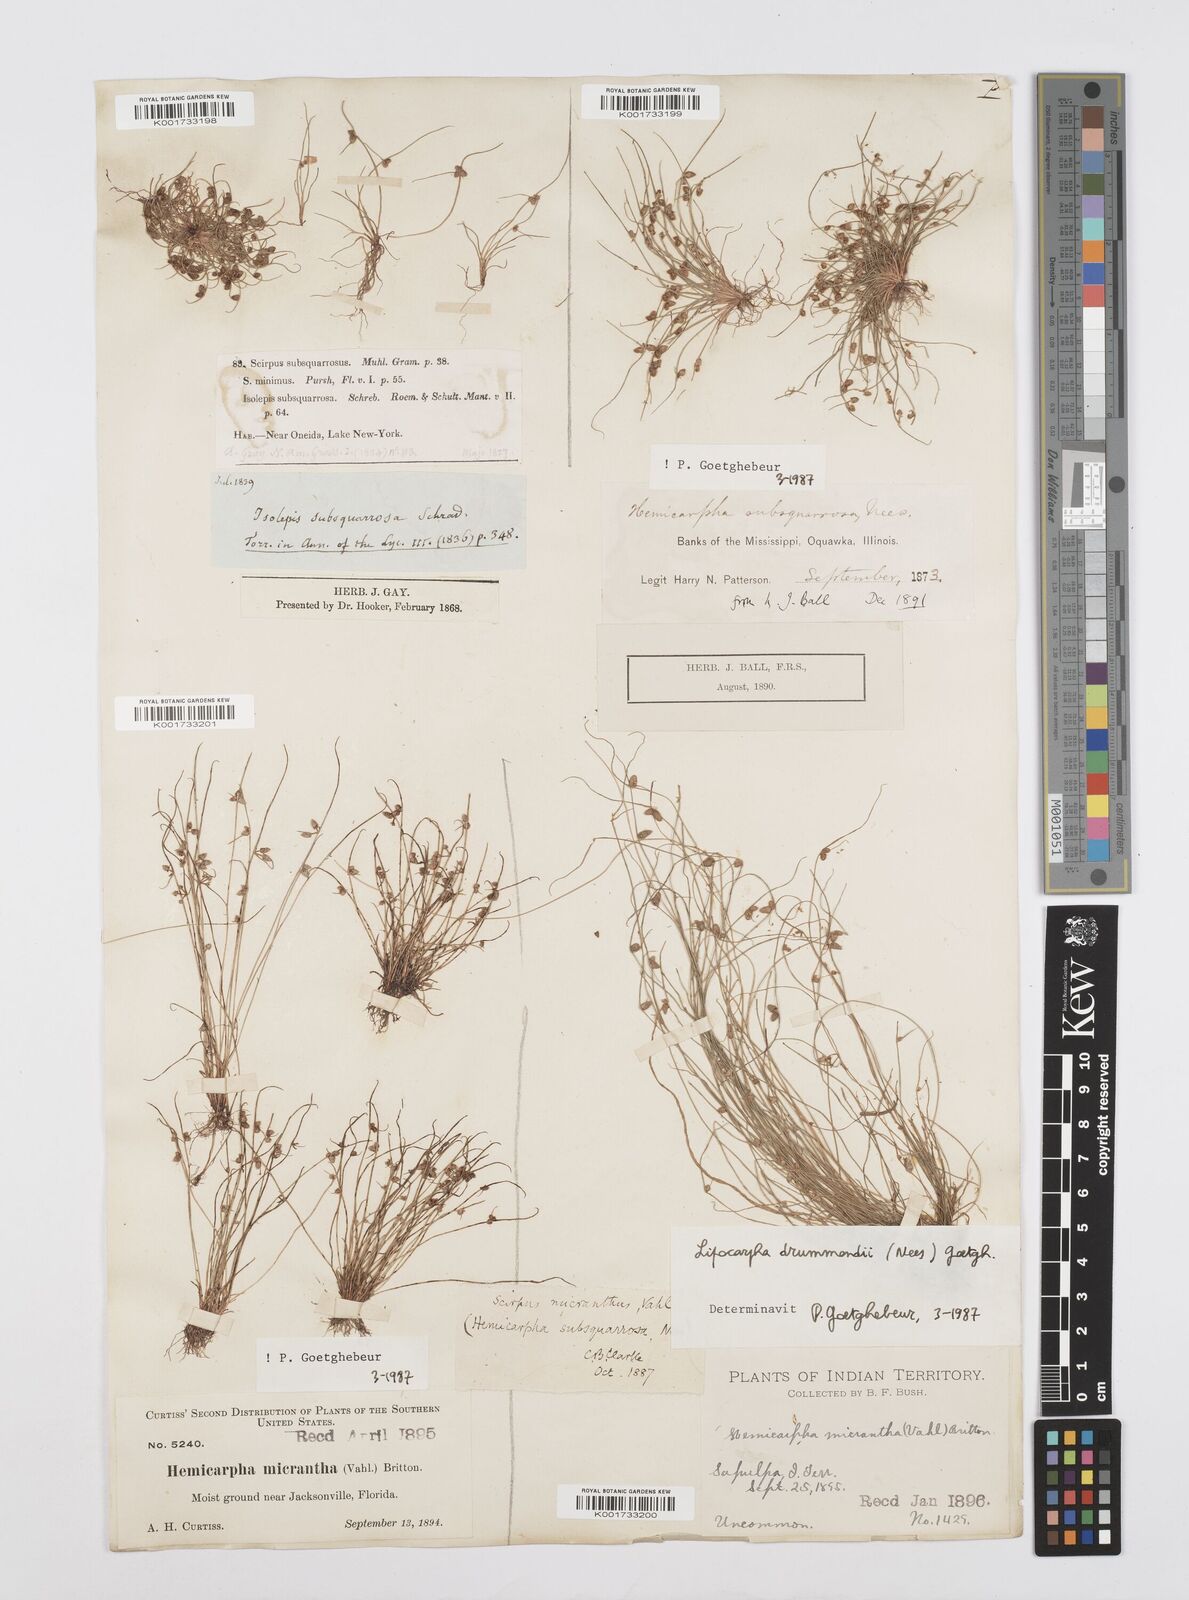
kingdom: Plantae
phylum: Tracheophyta
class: Liliopsida
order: Poales
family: Cyperaceae
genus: Cyperus
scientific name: Cyperus dentatus
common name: Dentate umbrella sedge
